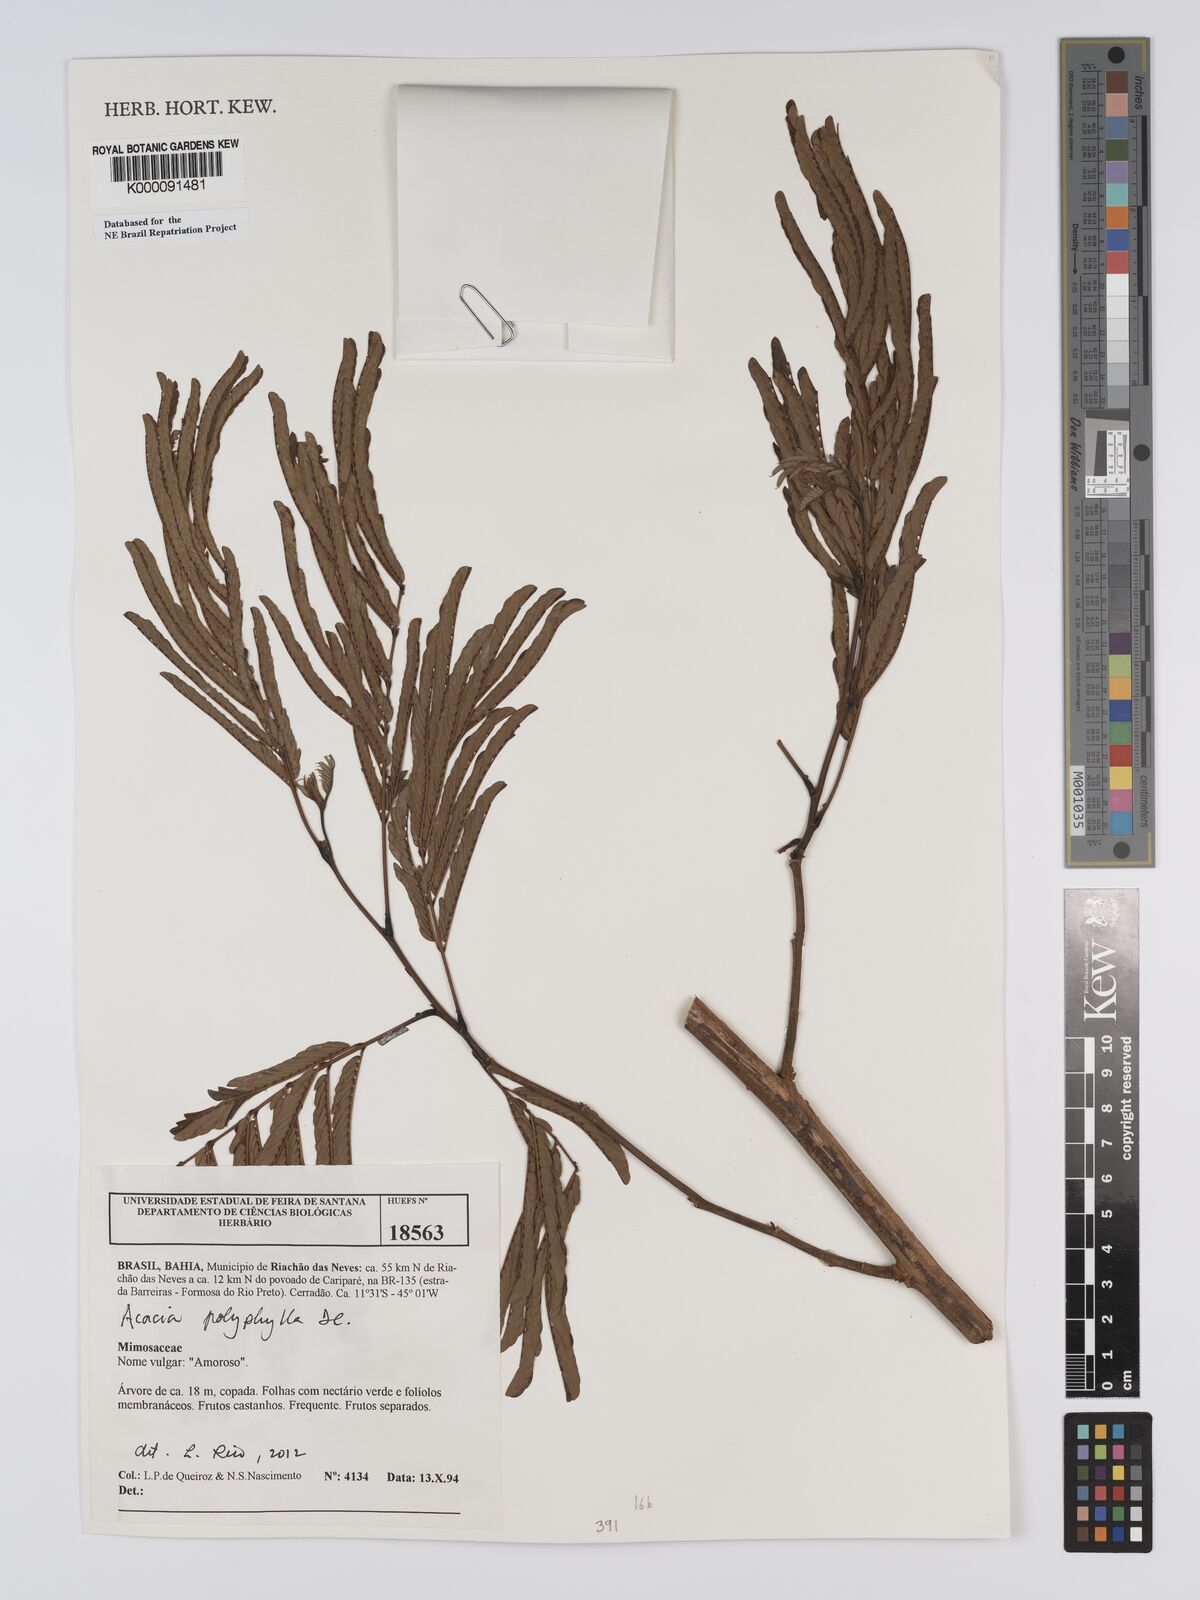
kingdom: Plantae
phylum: Tracheophyta
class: Magnoliopsida
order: Fabales
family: Fabaceae
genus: Senegalia
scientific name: Senegalia polyphylla
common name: White-tamarind
